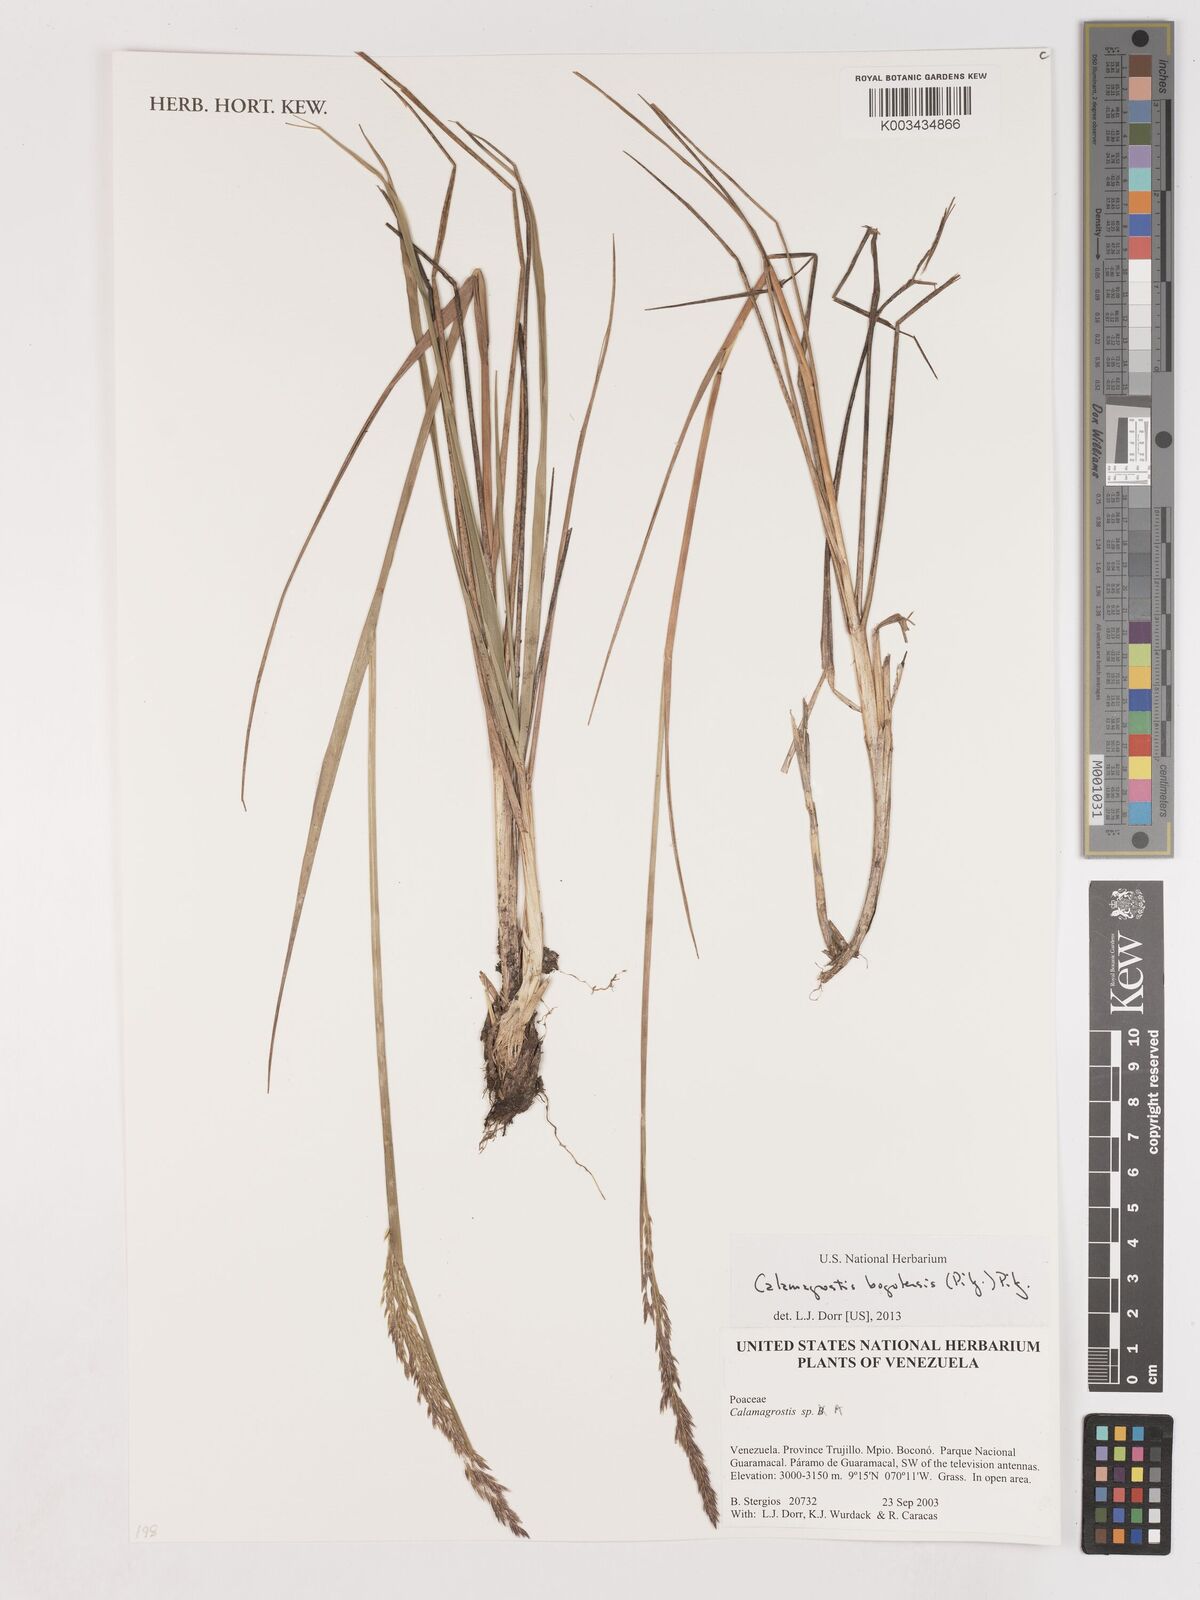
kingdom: Plantae
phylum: Tracheophyta
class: Liliopsida
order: Poales
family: Poaceae
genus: Calamagrostis
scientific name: Calamagrostis bogotensis
